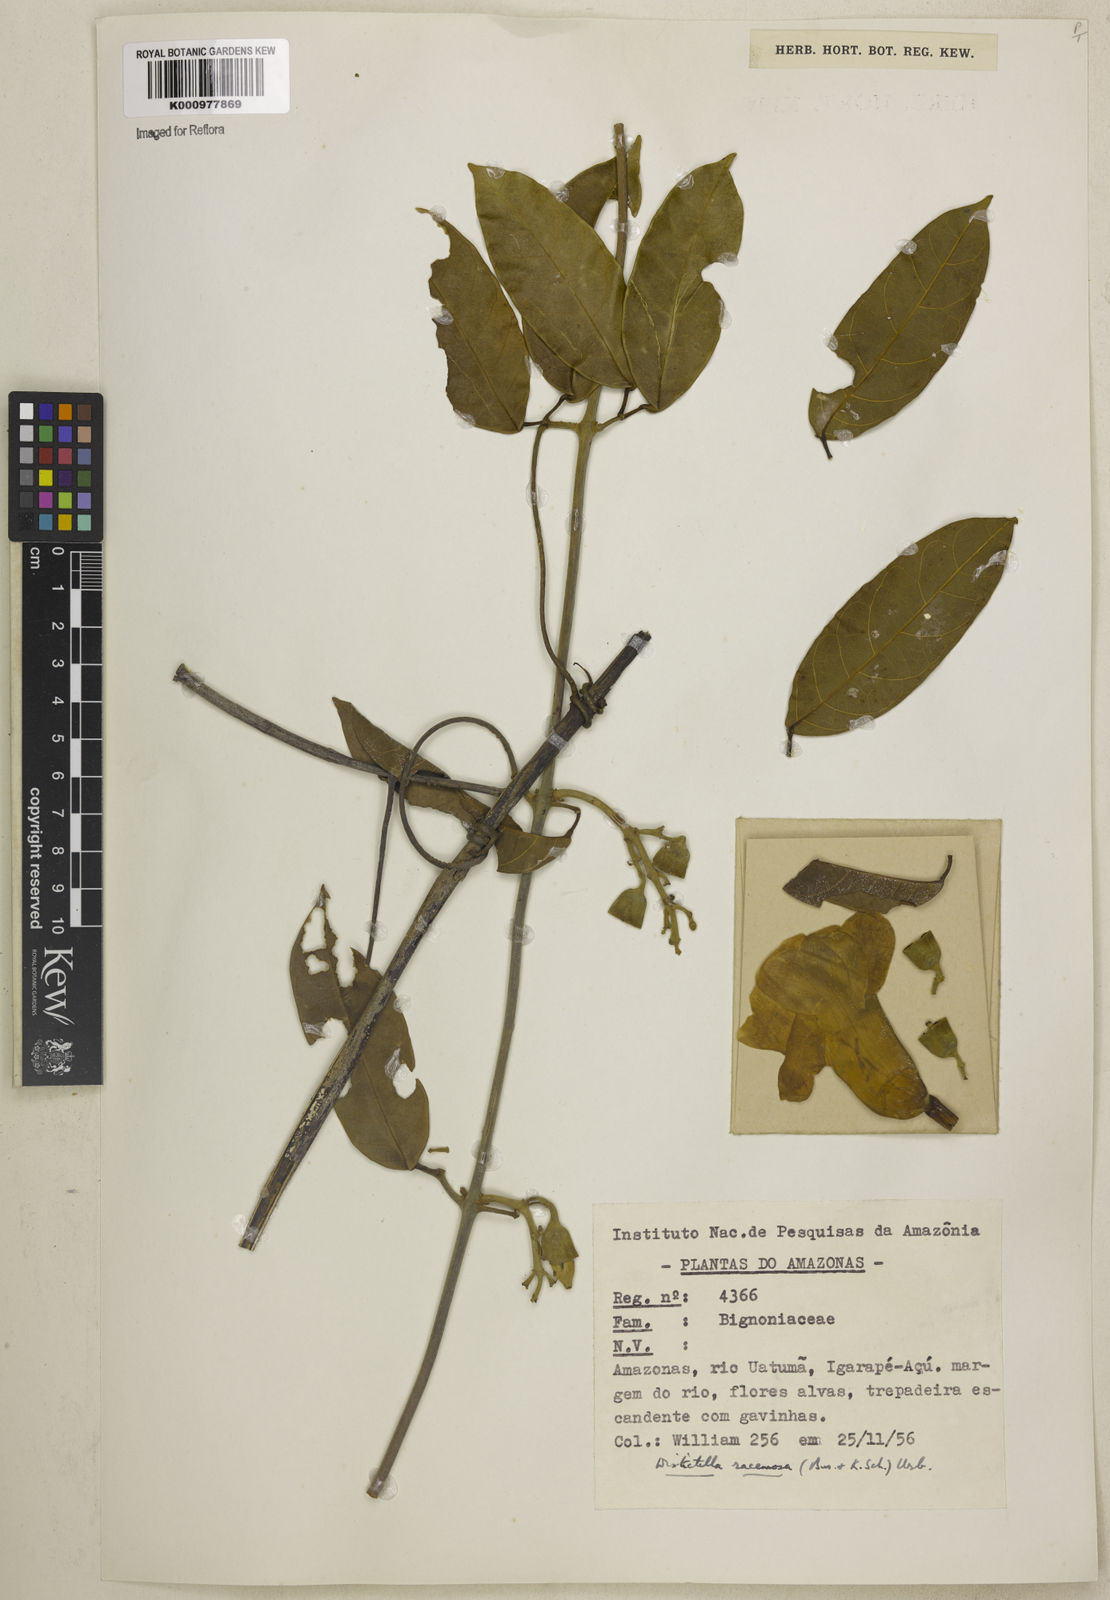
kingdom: Plantae
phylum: Tracheophyta
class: Magnoliopsida
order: Lamiales
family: Bignoniaceae
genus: Amphilophium
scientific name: Amphilophium racemosum
